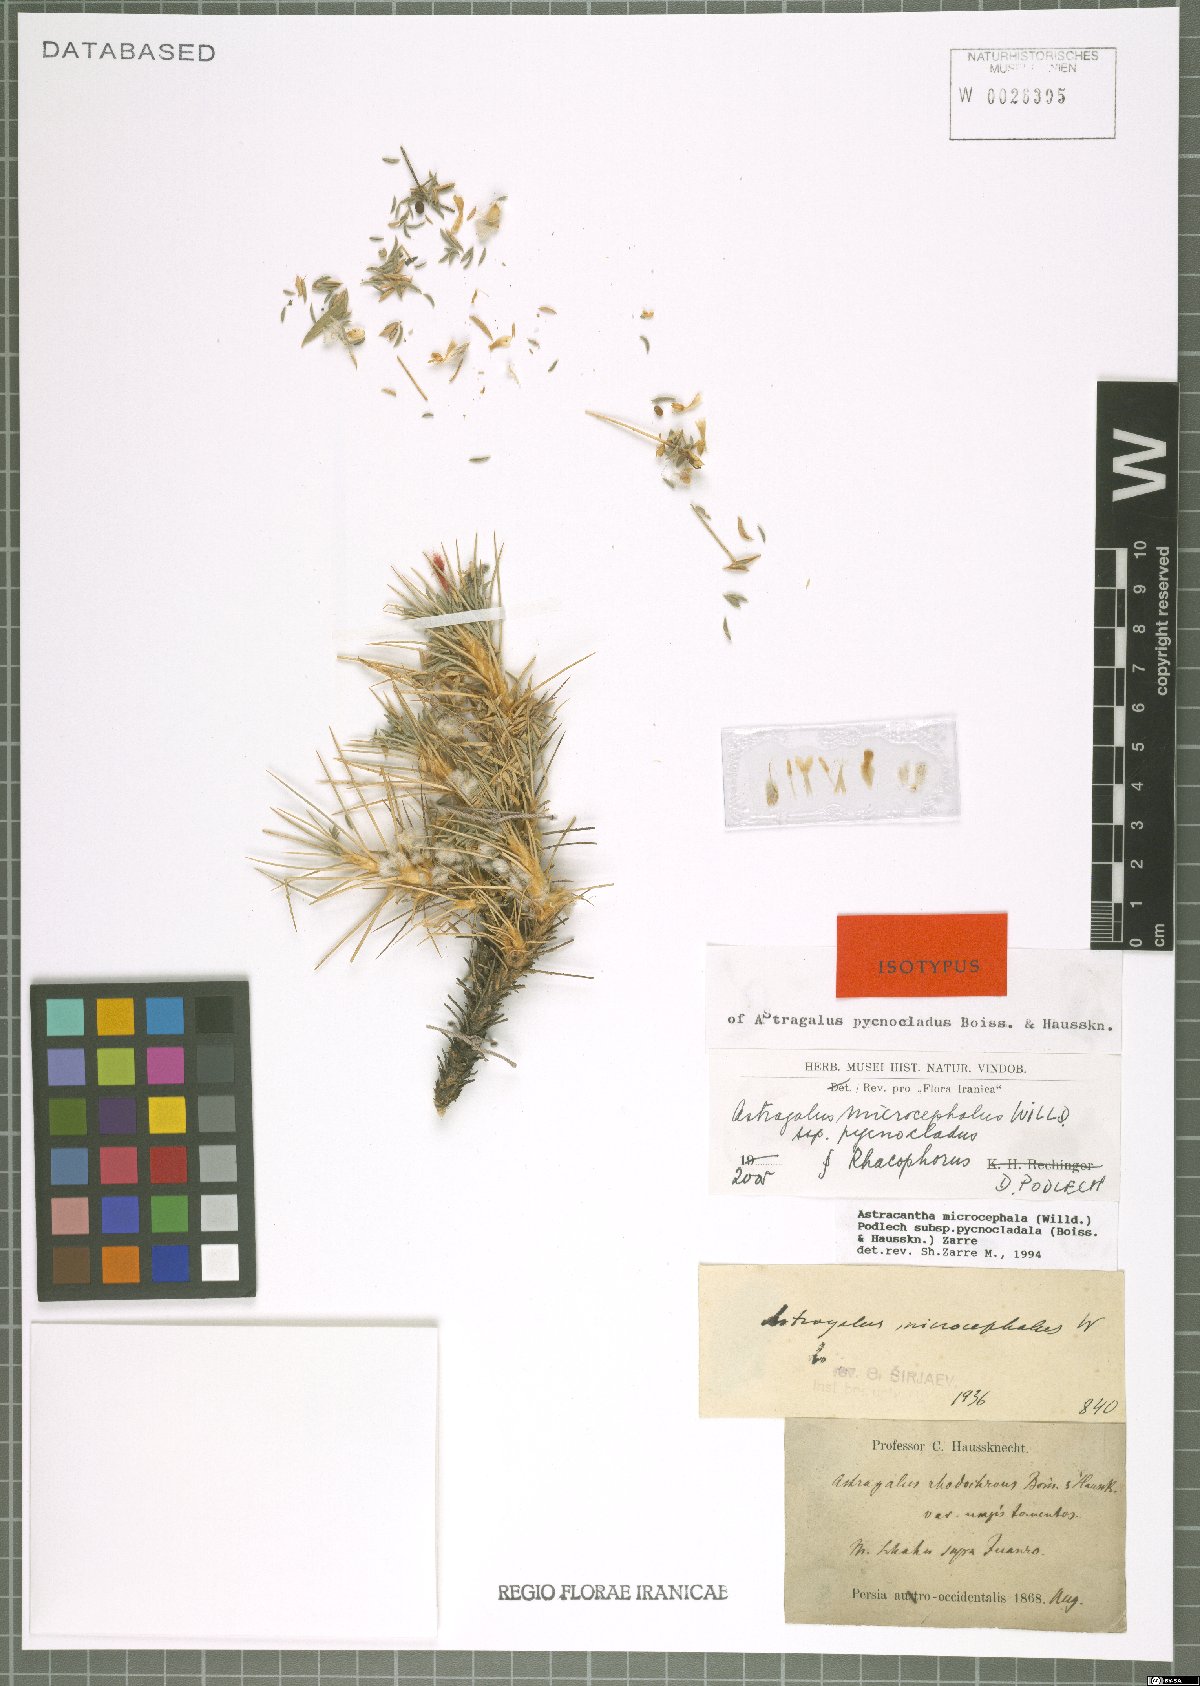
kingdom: Plantae
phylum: Tracheophyta
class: Magnoliopsida
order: Fabales
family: Fabaceae
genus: Astragalus
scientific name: Astragalus microcephalus
